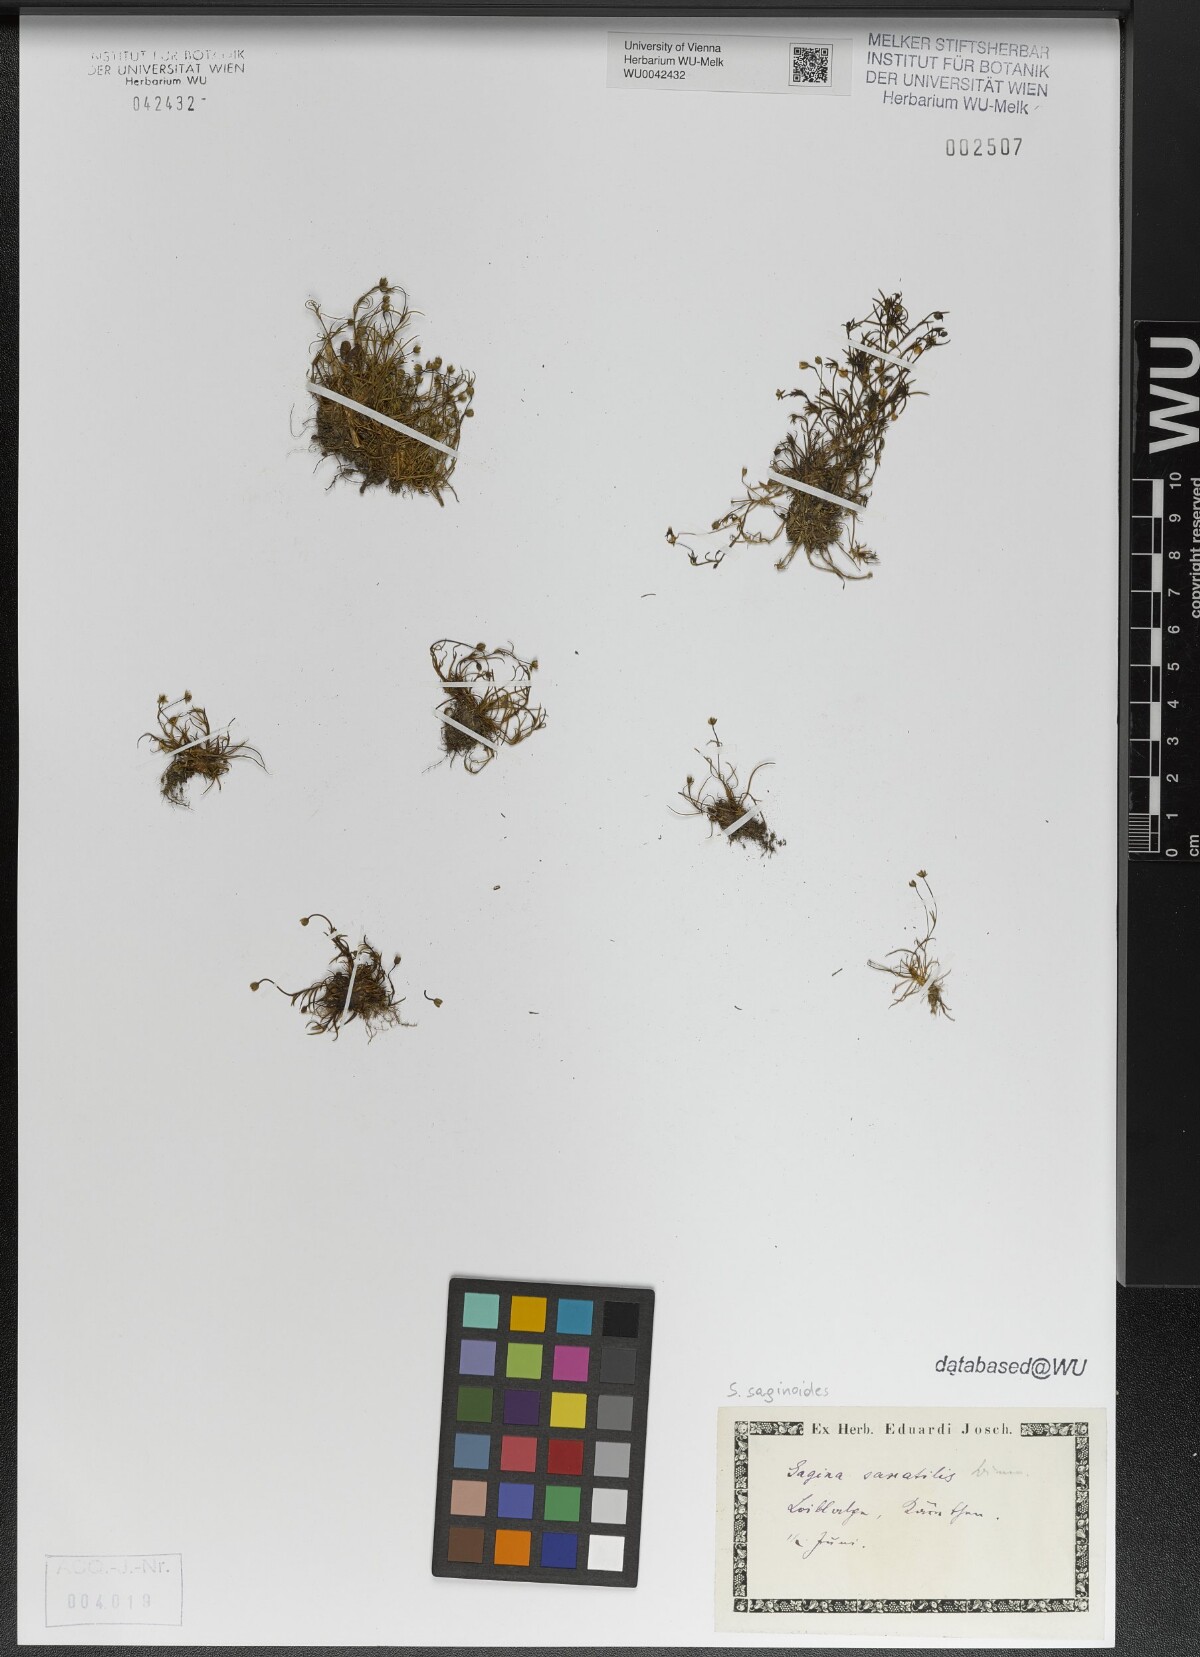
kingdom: Plantae
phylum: Tracheophyta
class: Magnoliopsida
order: Caryophyllales
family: Caryophyllaceae
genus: Sagina
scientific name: Sagina saginoides
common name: Alpine pearlwort
